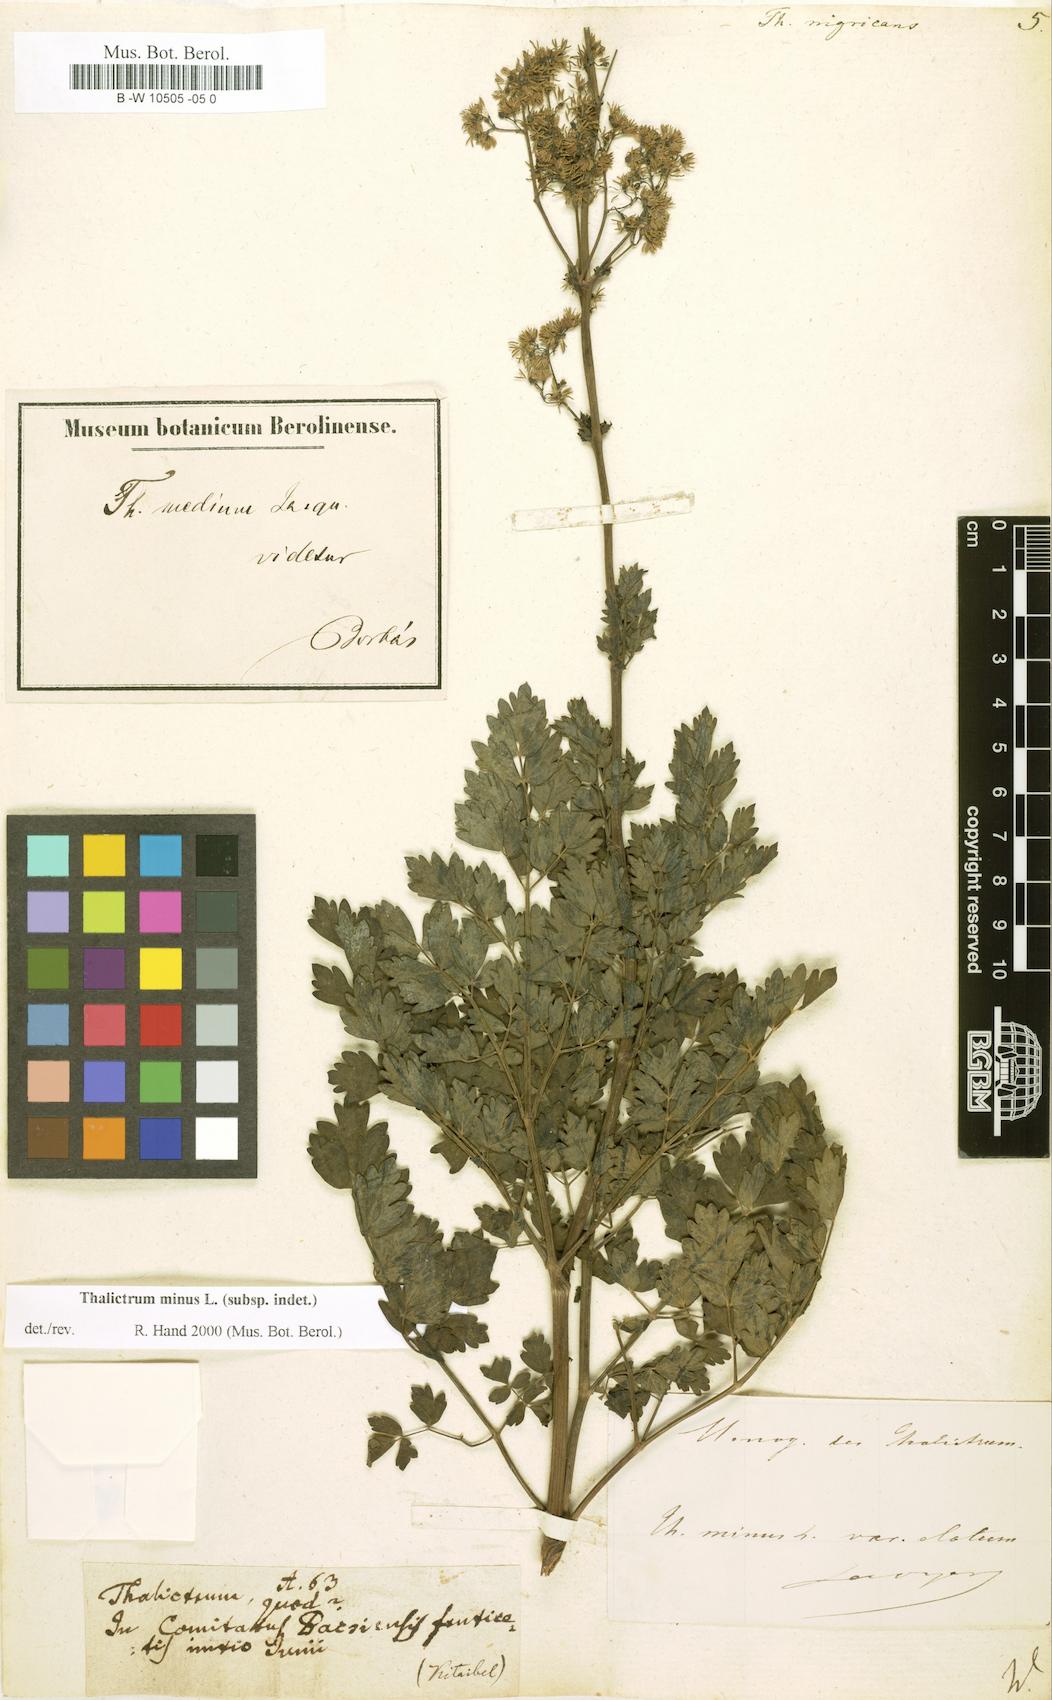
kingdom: Plantae
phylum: Tracheophyta
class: Magnoliopsida
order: Ranunculales
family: Ranunculaceae
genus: Thalictrum
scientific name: Thalictrum
